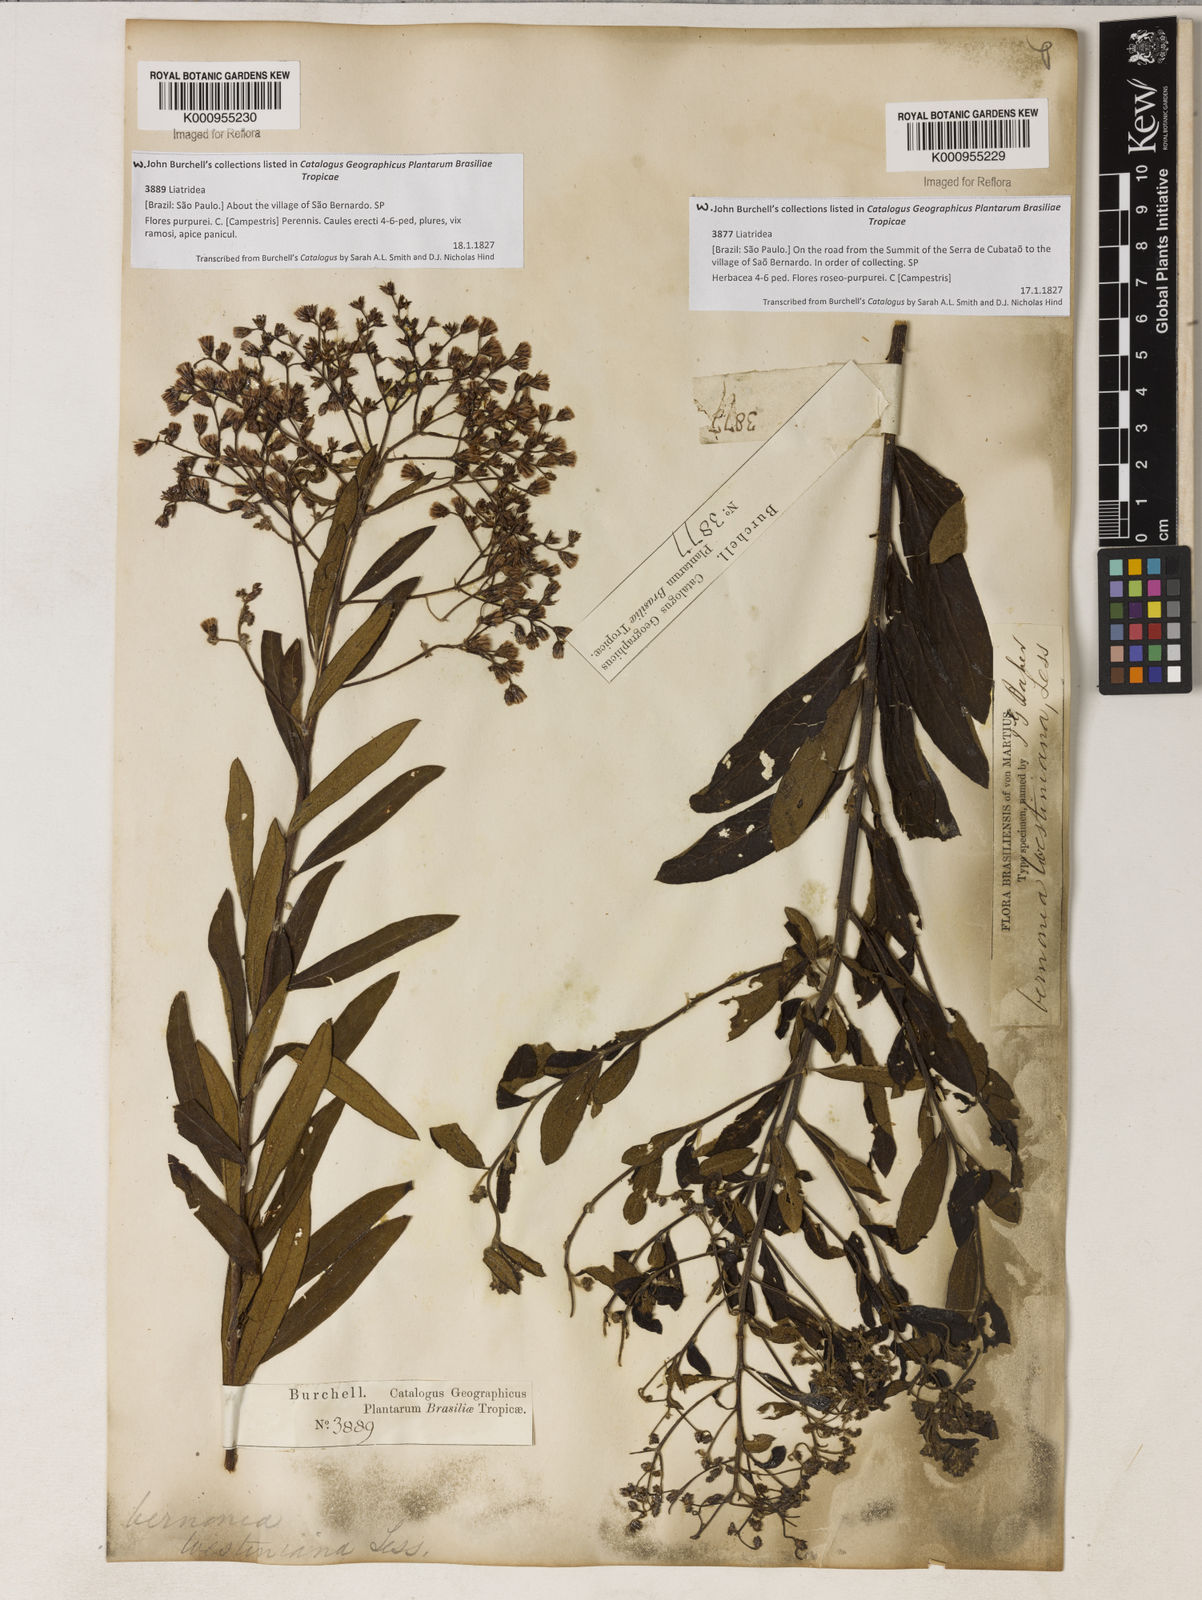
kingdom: Plantae
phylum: Tracheophyta
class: Magnoliopsida
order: Asterales
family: Asteraceae
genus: Vernonanthura
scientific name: Vernonanthura westiniana
